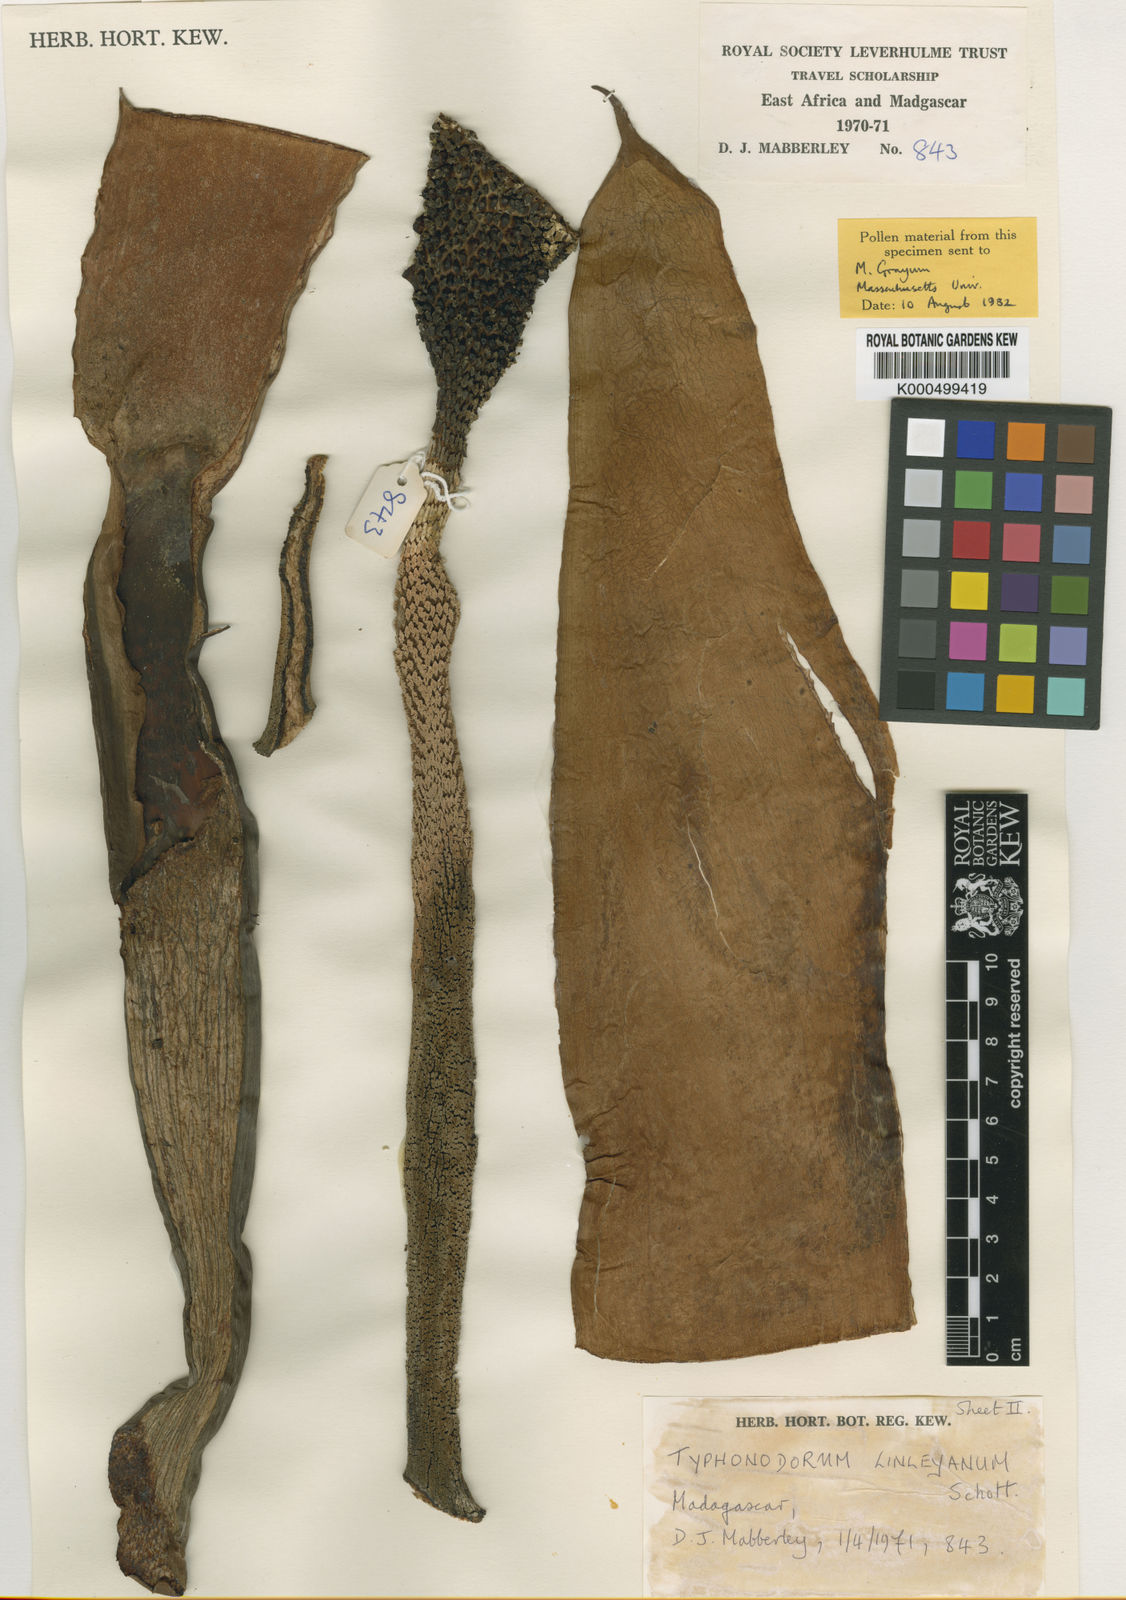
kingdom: Plantae
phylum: Tracheophyta
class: Liliopsida
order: Alismatales
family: Araceae
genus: Typhonodorum
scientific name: Typhonodorum
